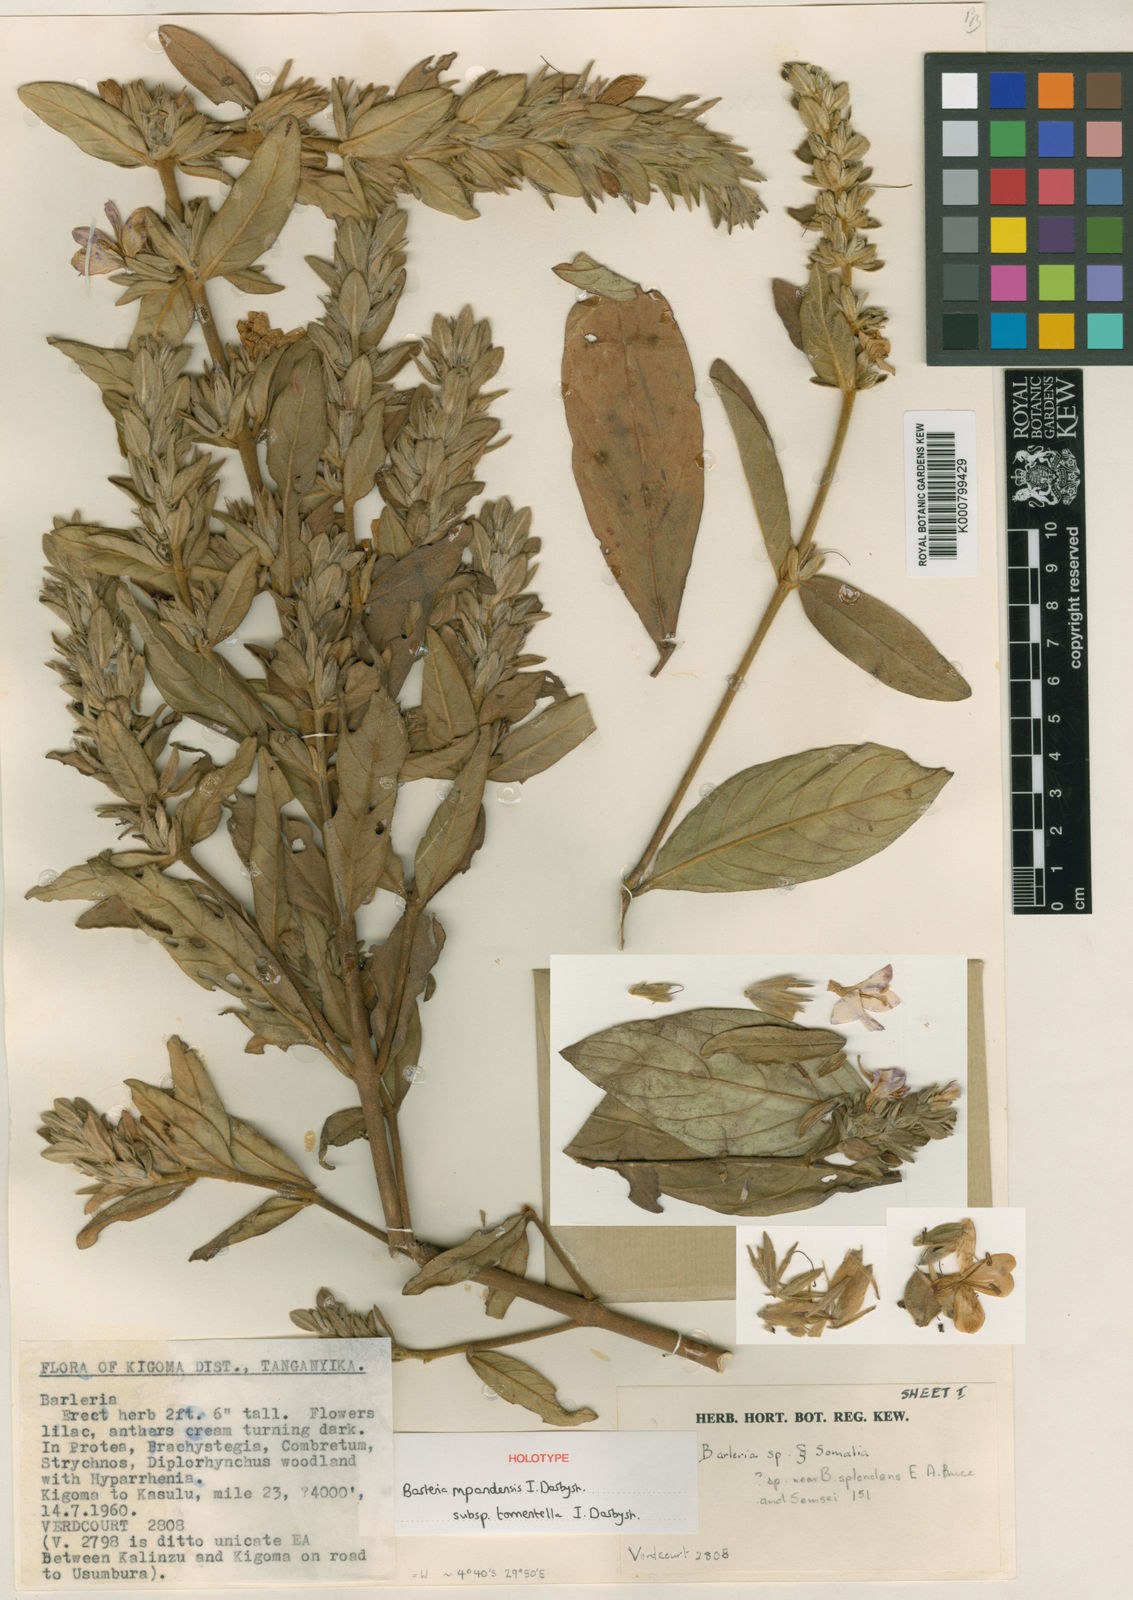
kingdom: Plantae
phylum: Tracheophyta
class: Magnoliopsida
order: Lamiales
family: Acanthaceae
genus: Barleria
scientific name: Barleria mpandensis
